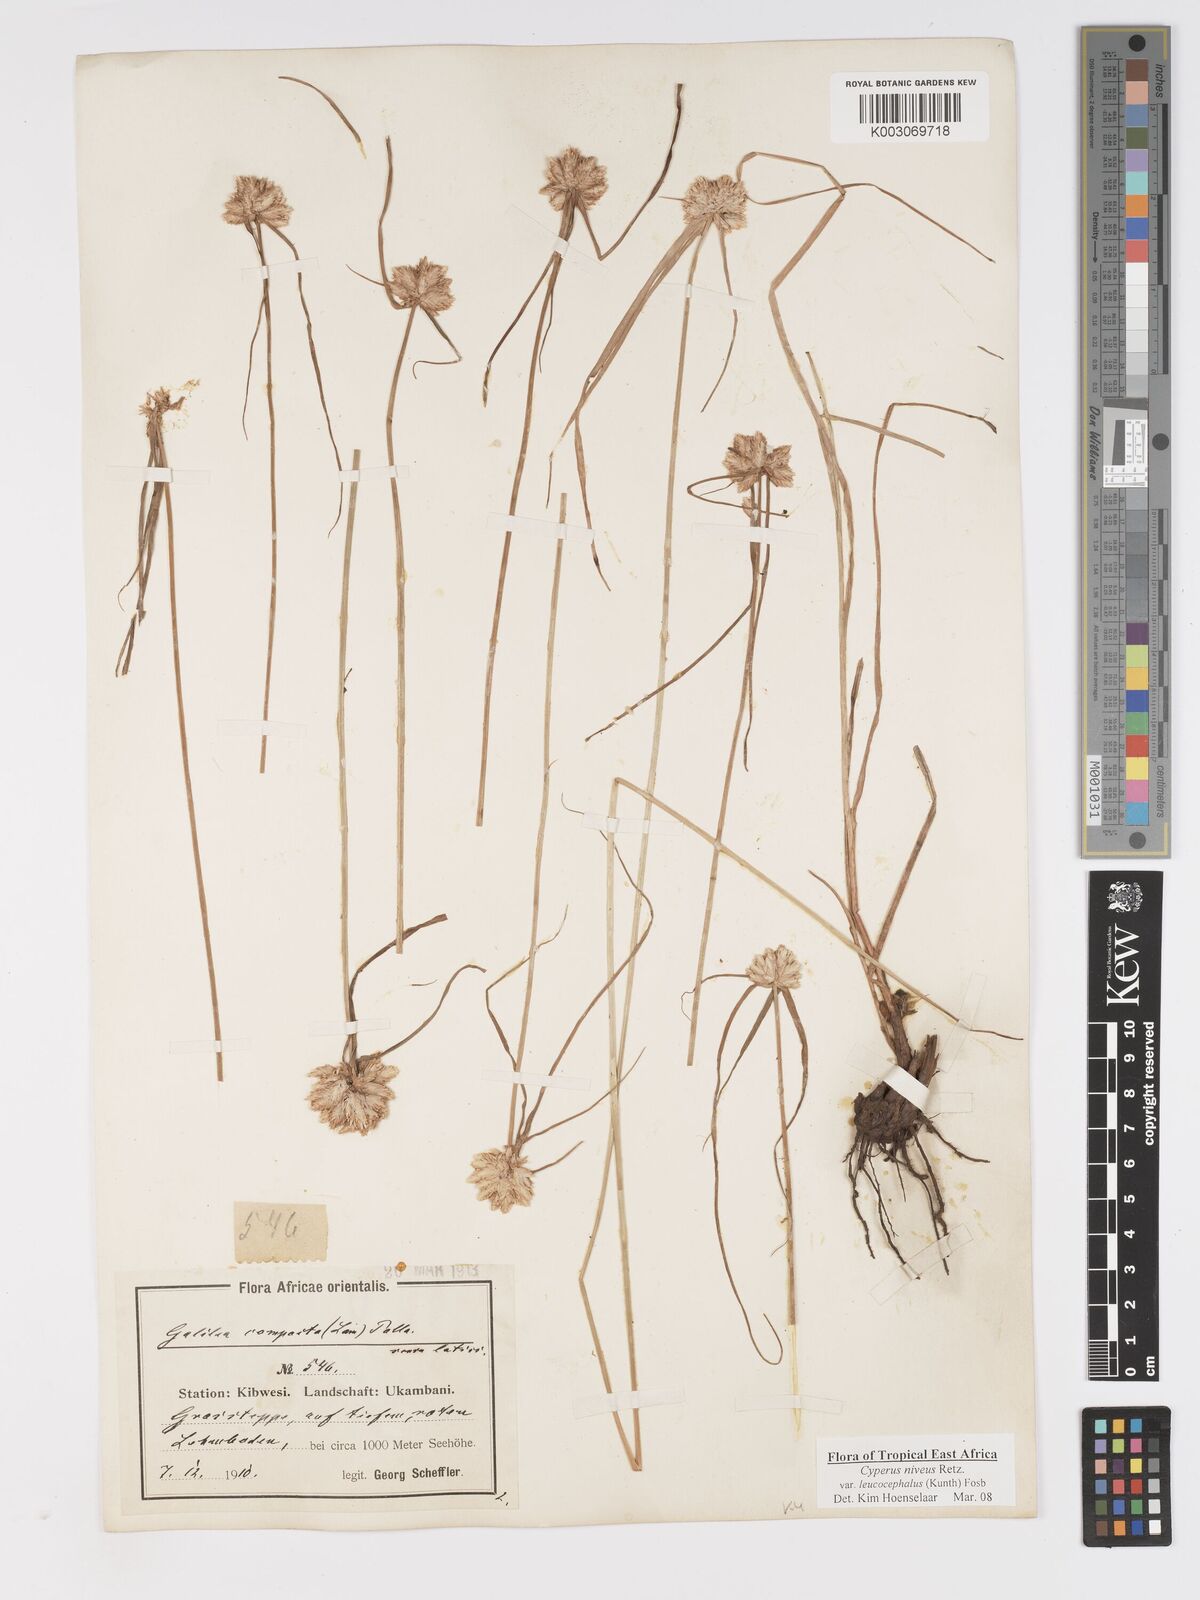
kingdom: Plantae
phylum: Tracheophyta
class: Liliopsida
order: Poales
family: Cyperaceae
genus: Cyperus
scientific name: Cyperus niveus
